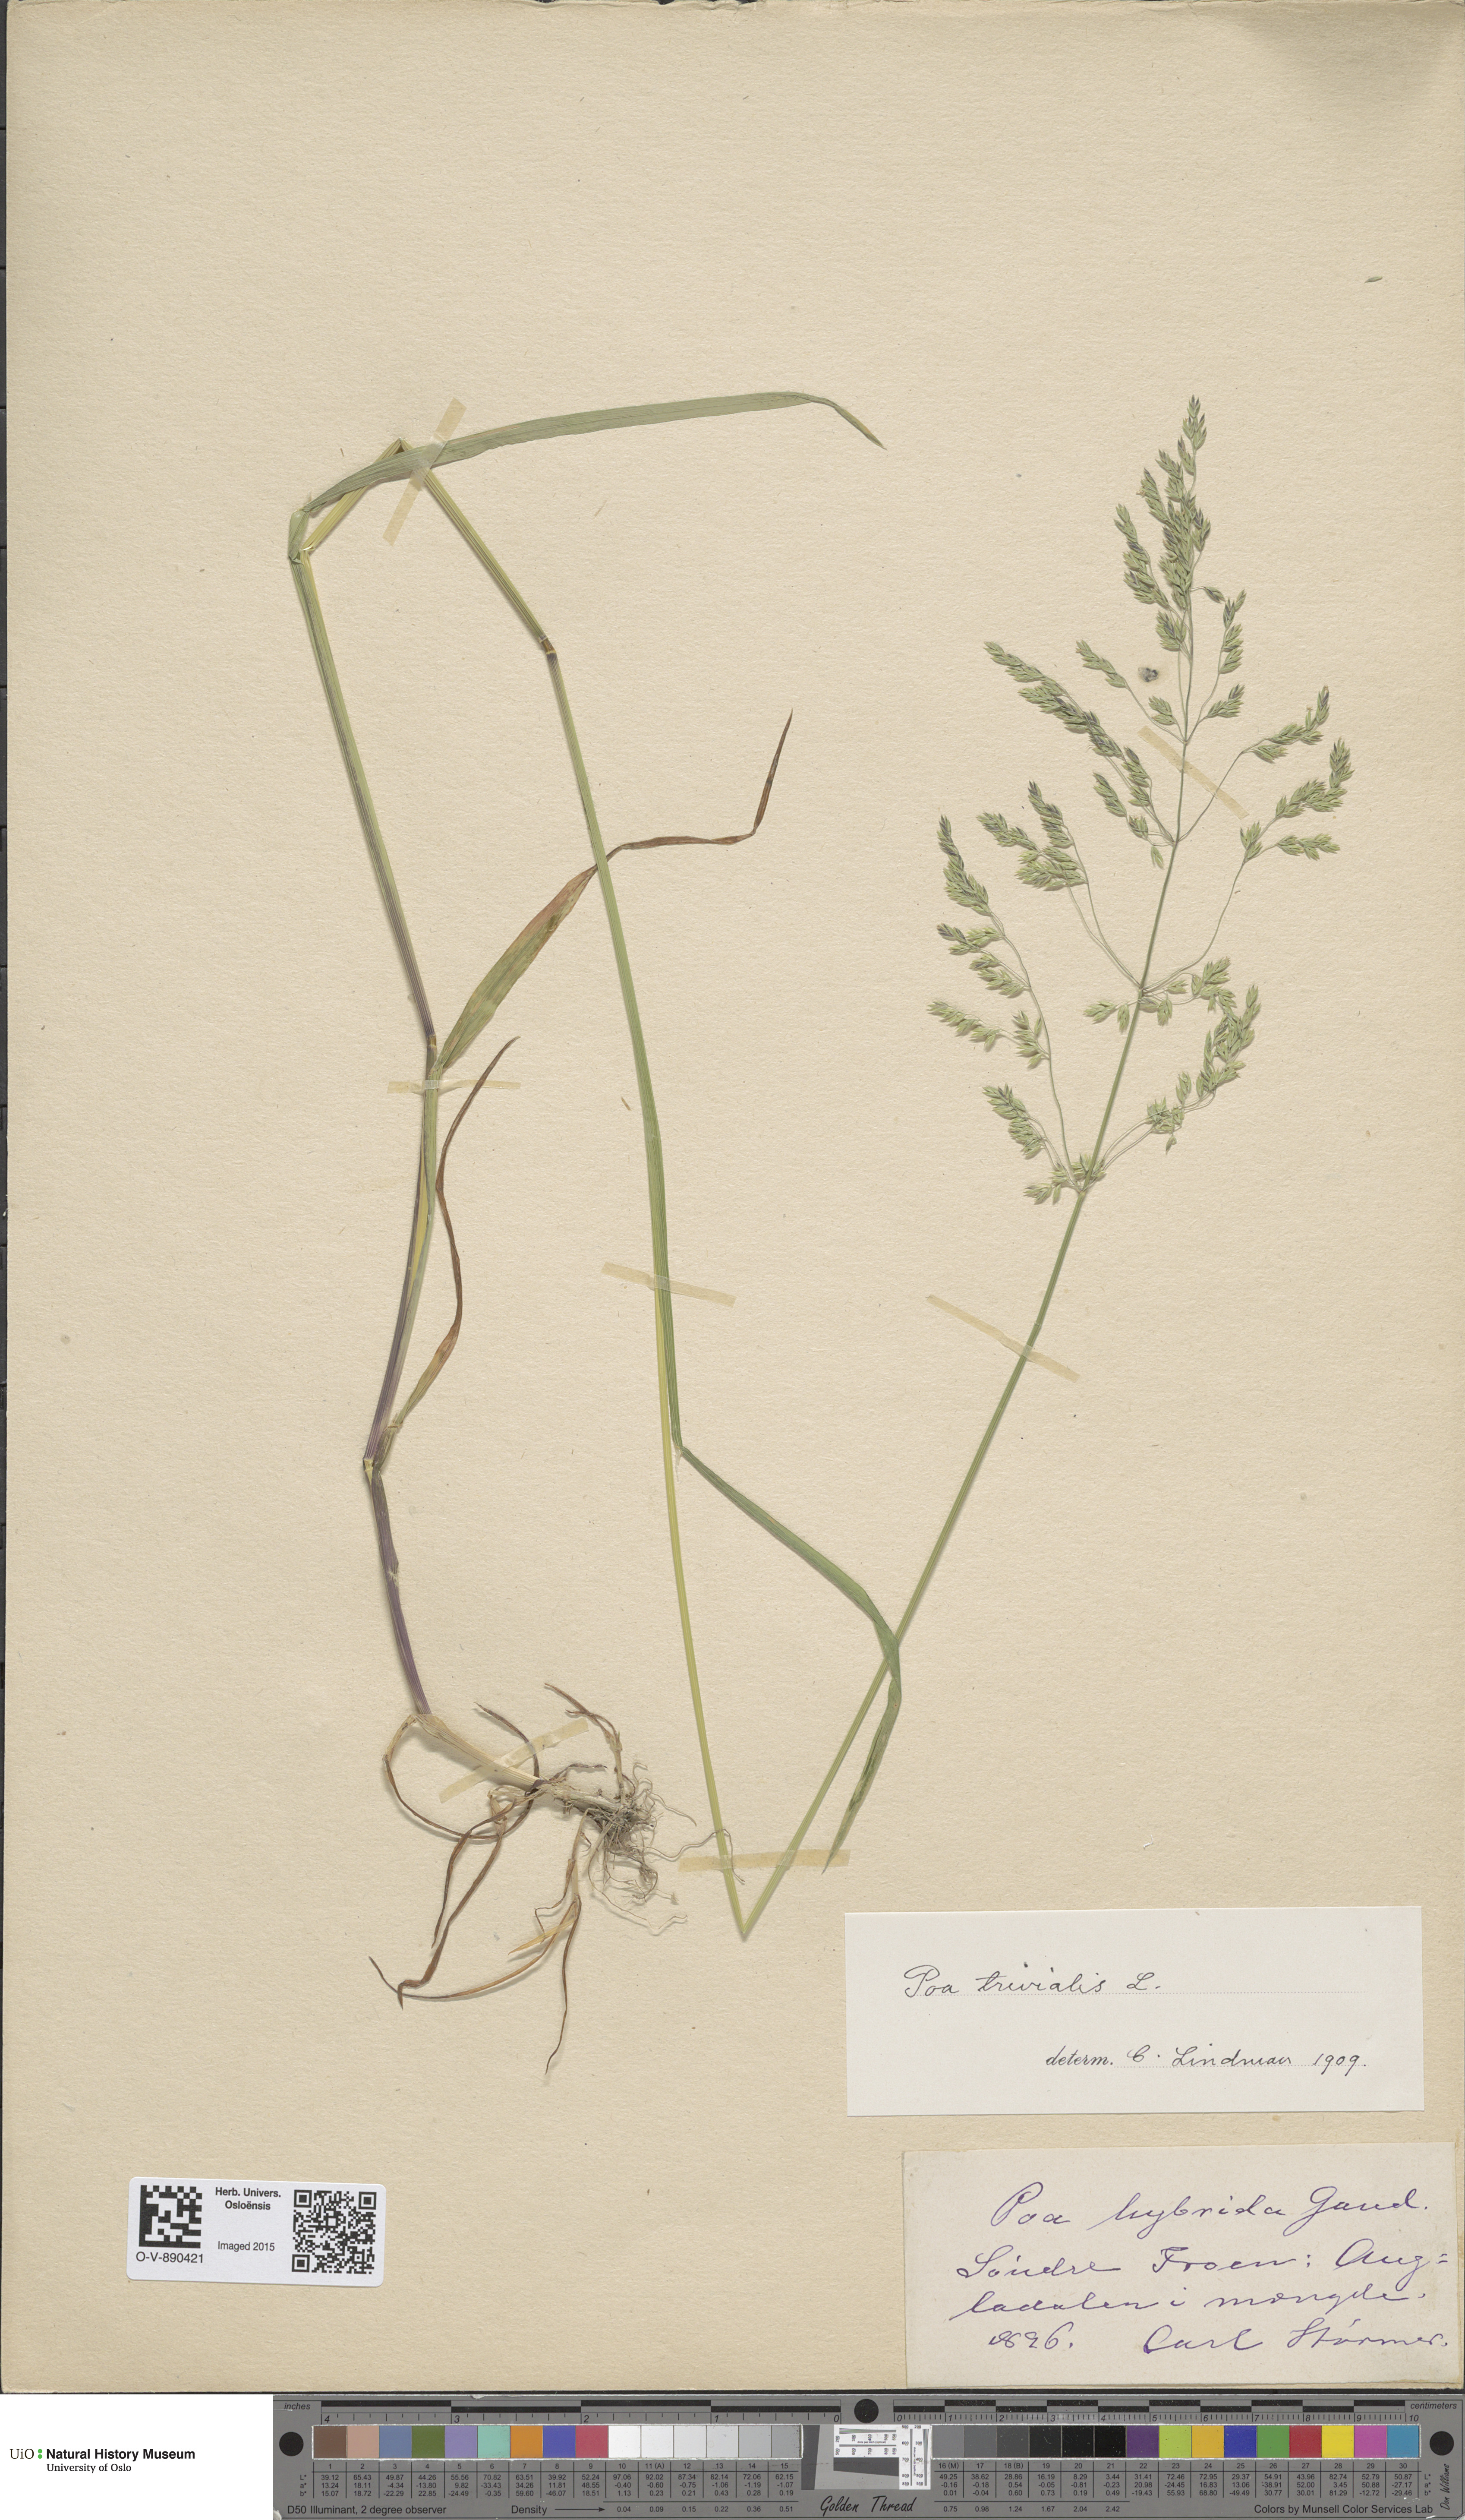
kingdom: Plantae
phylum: Tracheophyta
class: Liliopsida
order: Poales
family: Poaceae
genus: Poa
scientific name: Poa trivialis
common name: Rough bluegrass
